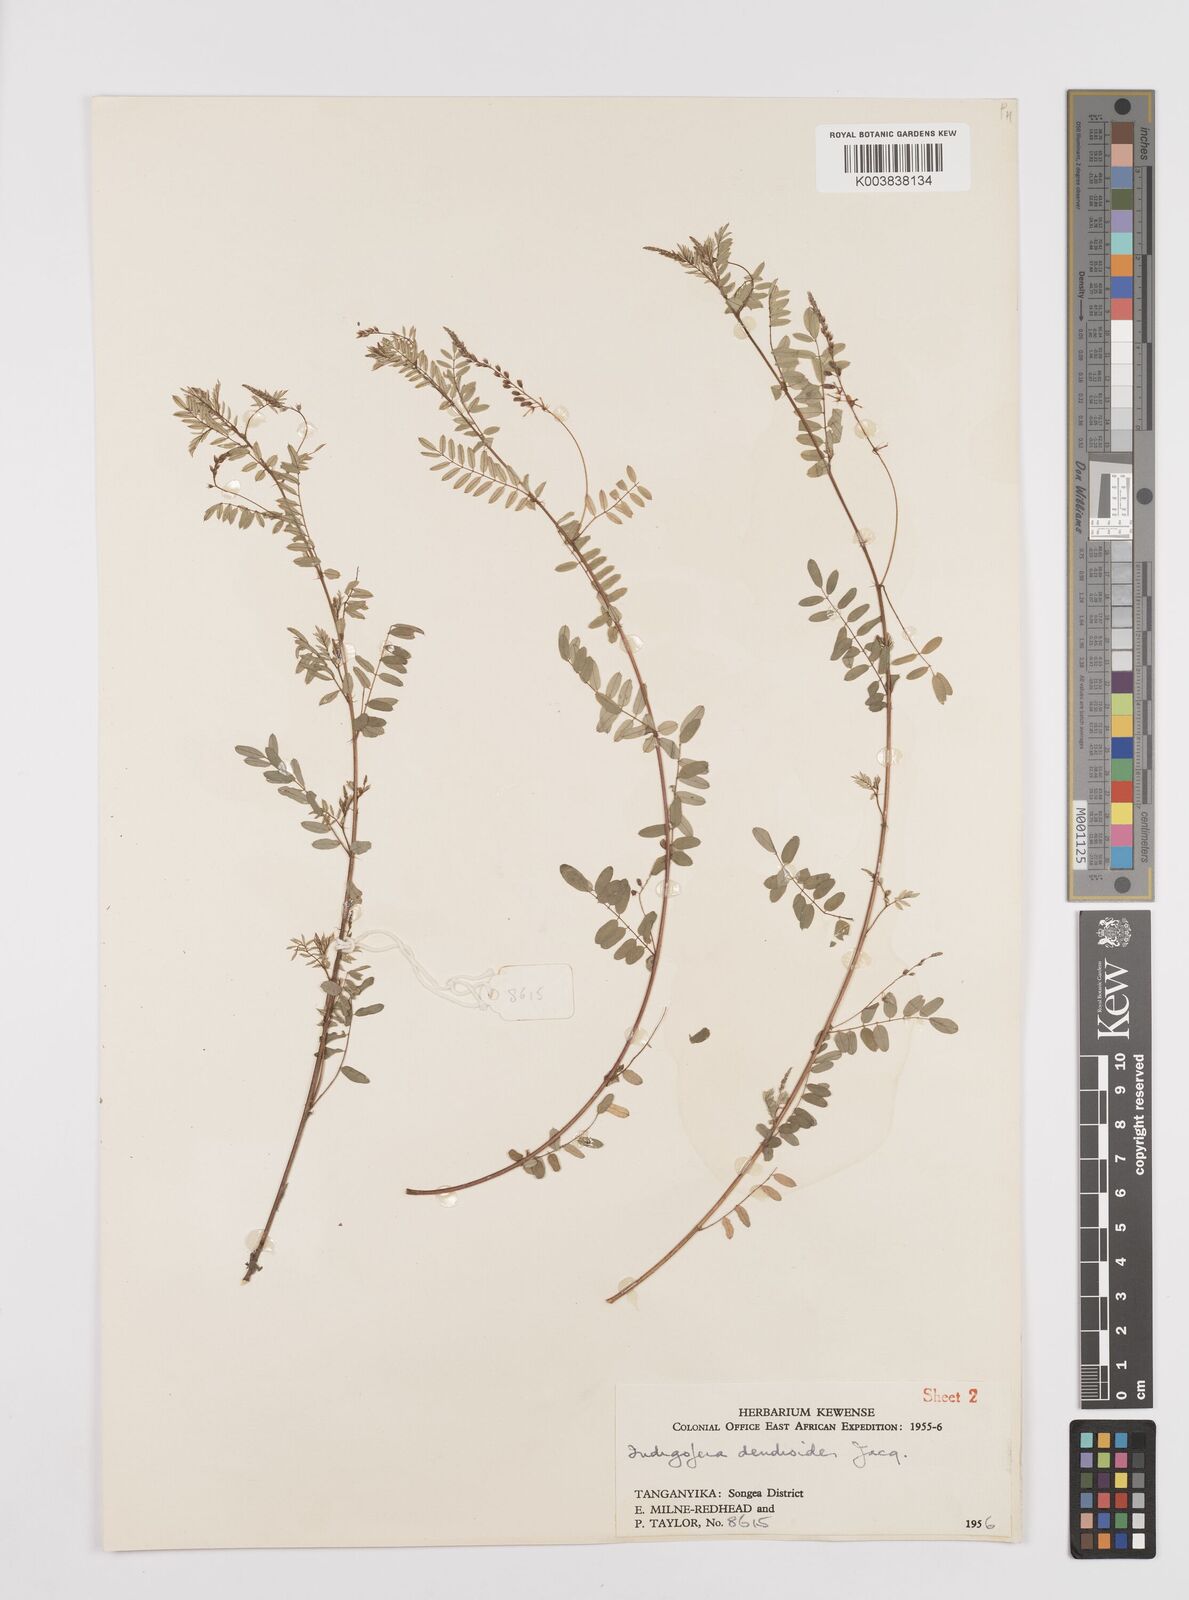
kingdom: Plantae
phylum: Tracheophyta
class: Magnoliopsida
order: Fabales
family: Fabaceae
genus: Indigofera
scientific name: Indigofera dendroides
